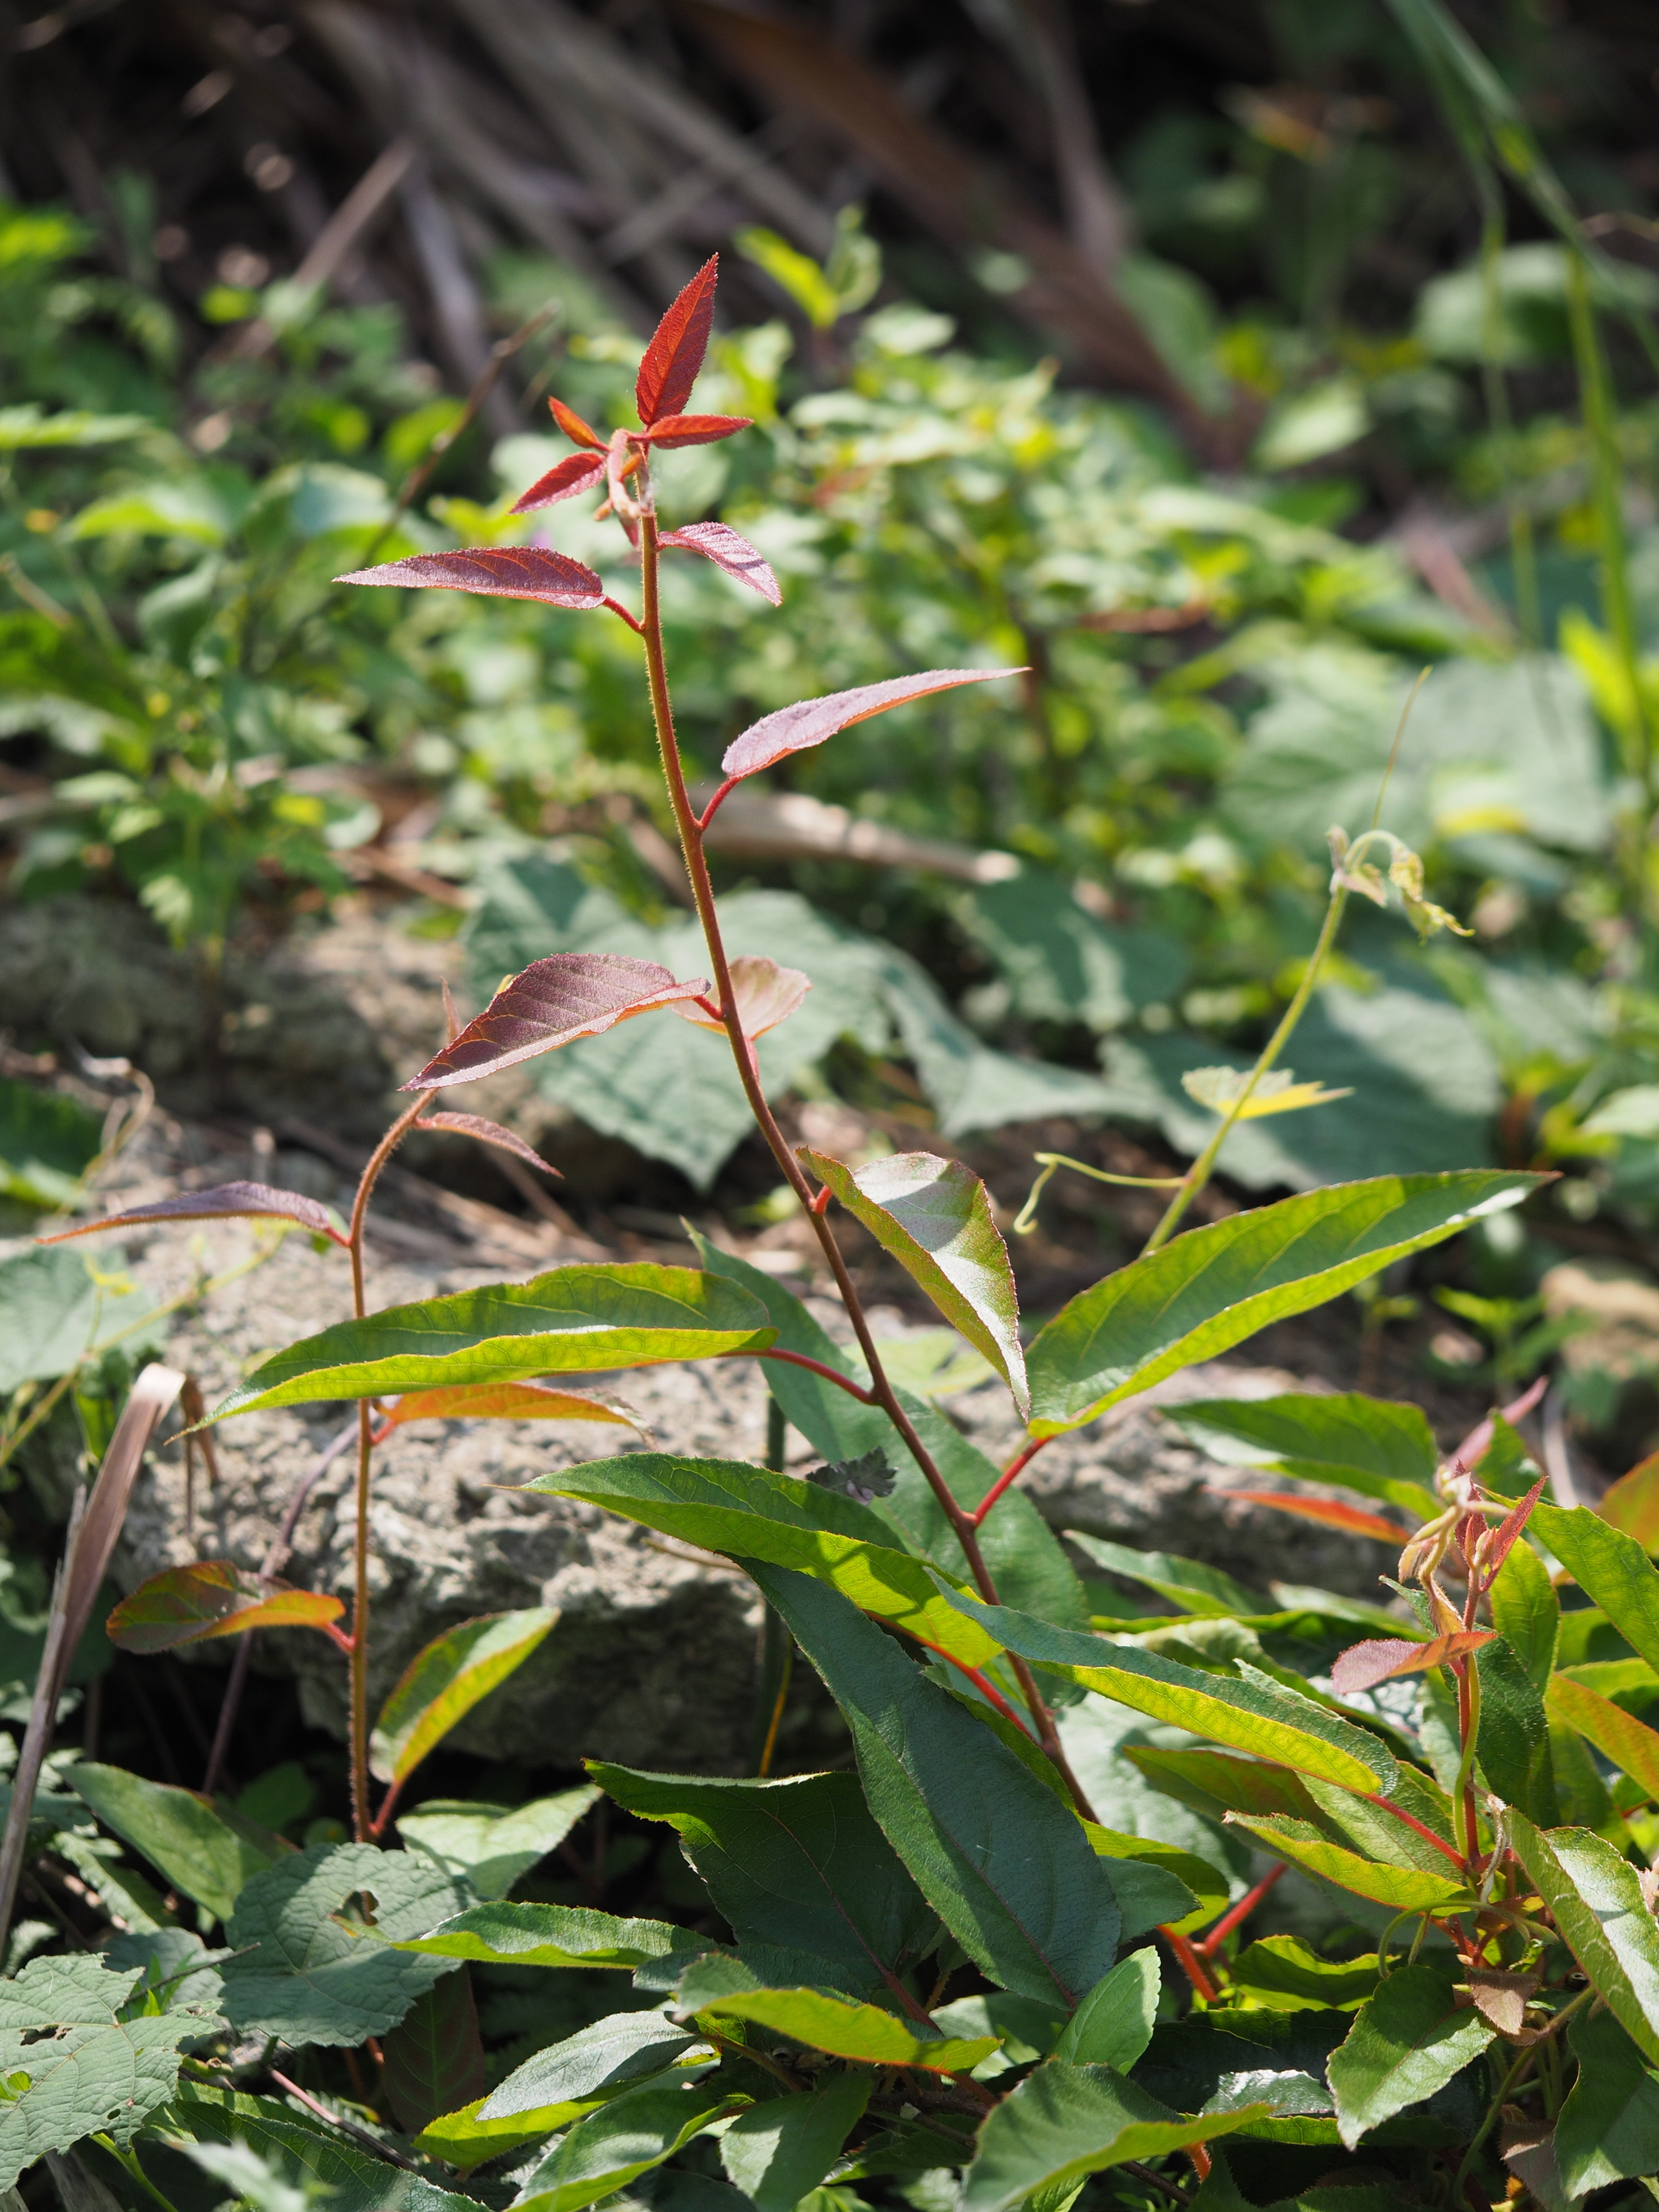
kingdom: Plantae
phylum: Tracheophyta
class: Magnoliopsida
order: Ericales
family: Actinidiaceae
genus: Actinidia
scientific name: Actinidia rufa
